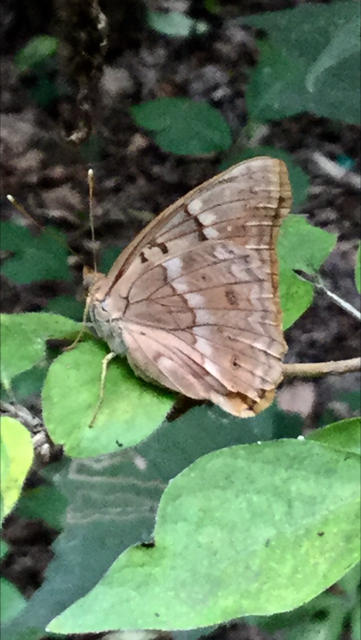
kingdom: Animalia
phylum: Arthropoda
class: Insecta
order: Lepidoptera
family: Nymphalidae
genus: Asterocampa
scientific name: Asterocampa clyton
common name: Tawny Emperor
